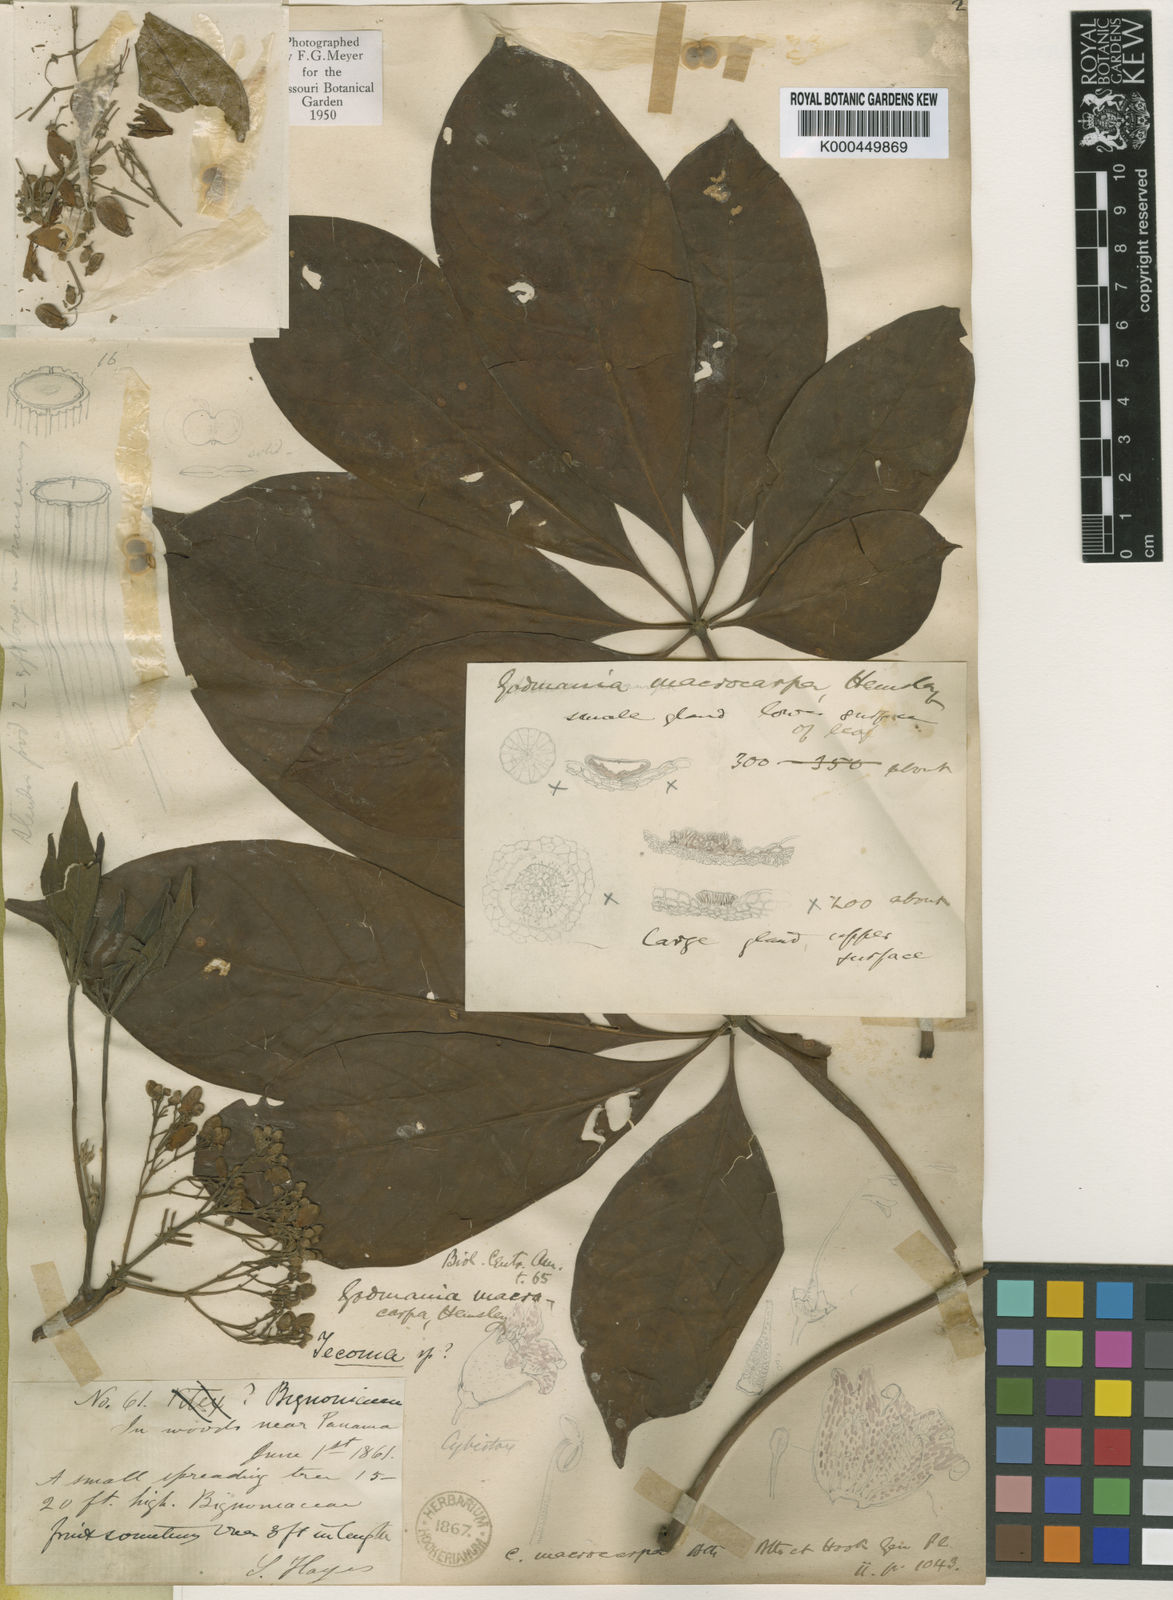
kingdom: Plantae
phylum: Tracheophyta
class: Magnoliopsida
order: Lamiales
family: Bignoniaceae
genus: Godmania
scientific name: Godmania aesculifolia
